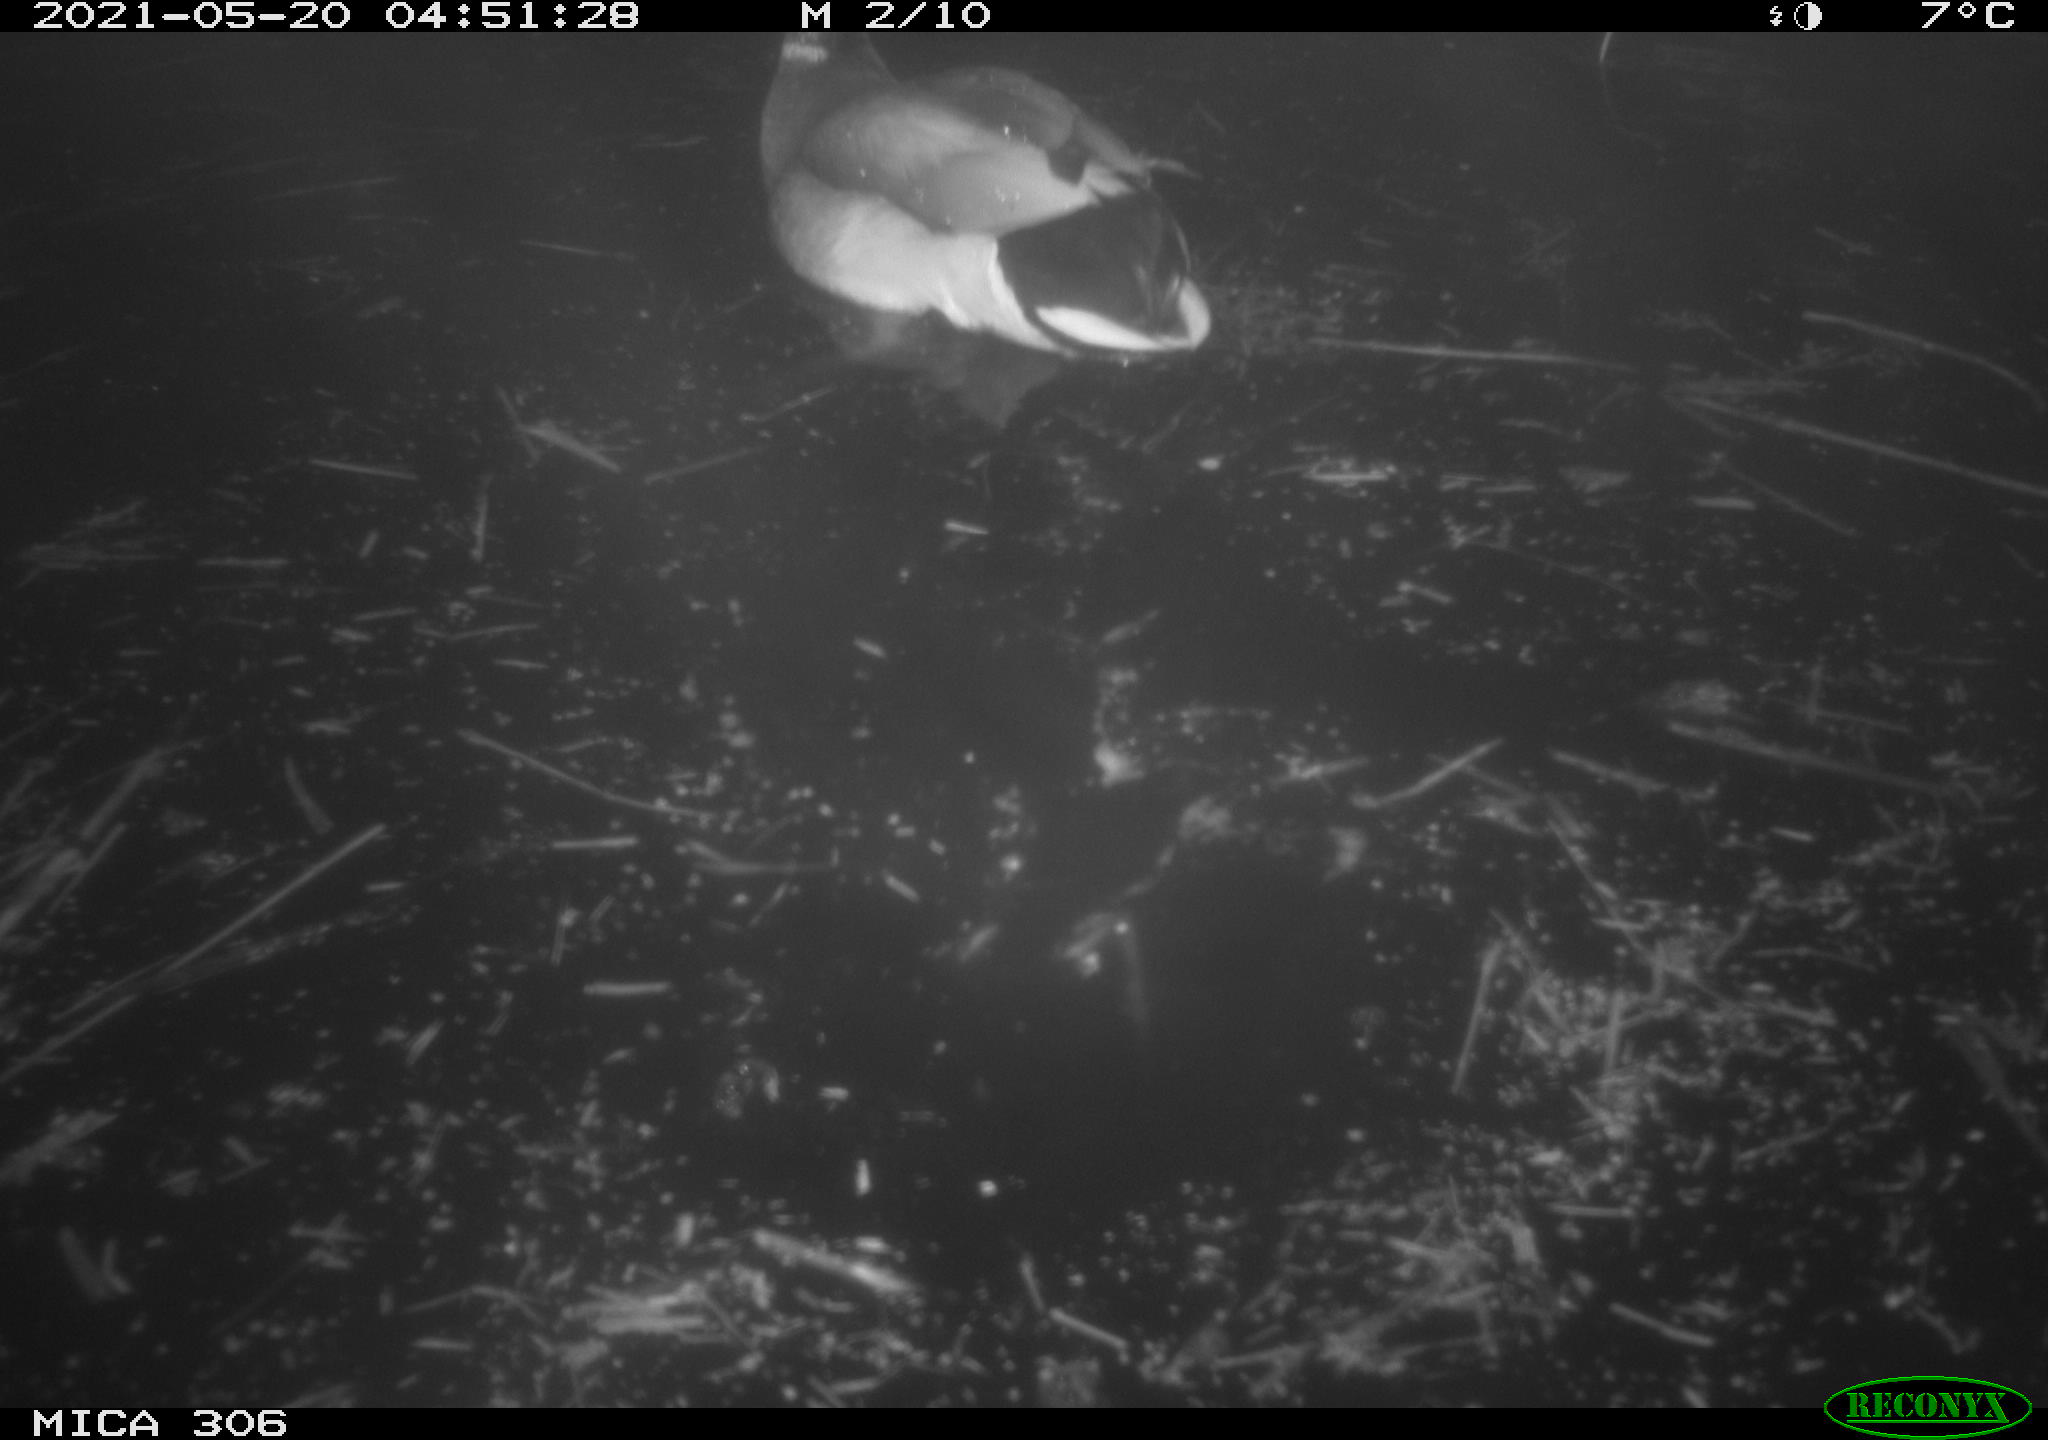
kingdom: Animalia
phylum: Chordata
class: Aves
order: Anseriformes
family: Anatidae
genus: Anas
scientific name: Anas platyrhynchos
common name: Mallard
